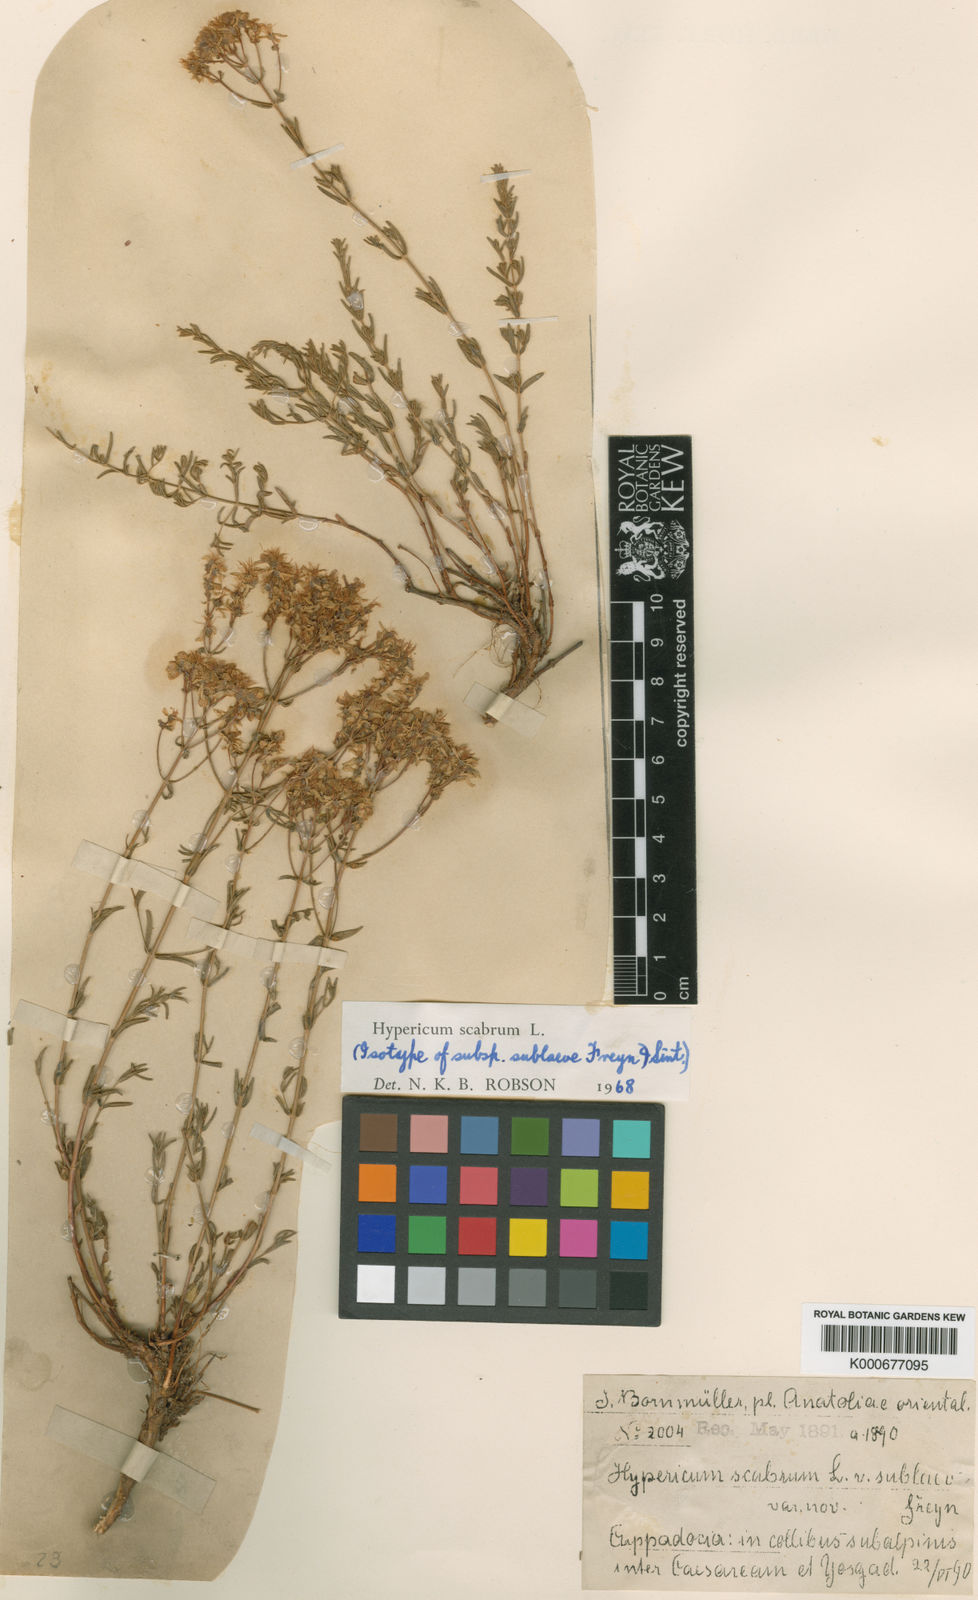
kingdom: Plantae
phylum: Tracheophyta
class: Magnoliopsida
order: Malpighiales
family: Hypericaceae
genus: Hypericum
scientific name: Hypericum scabrum
